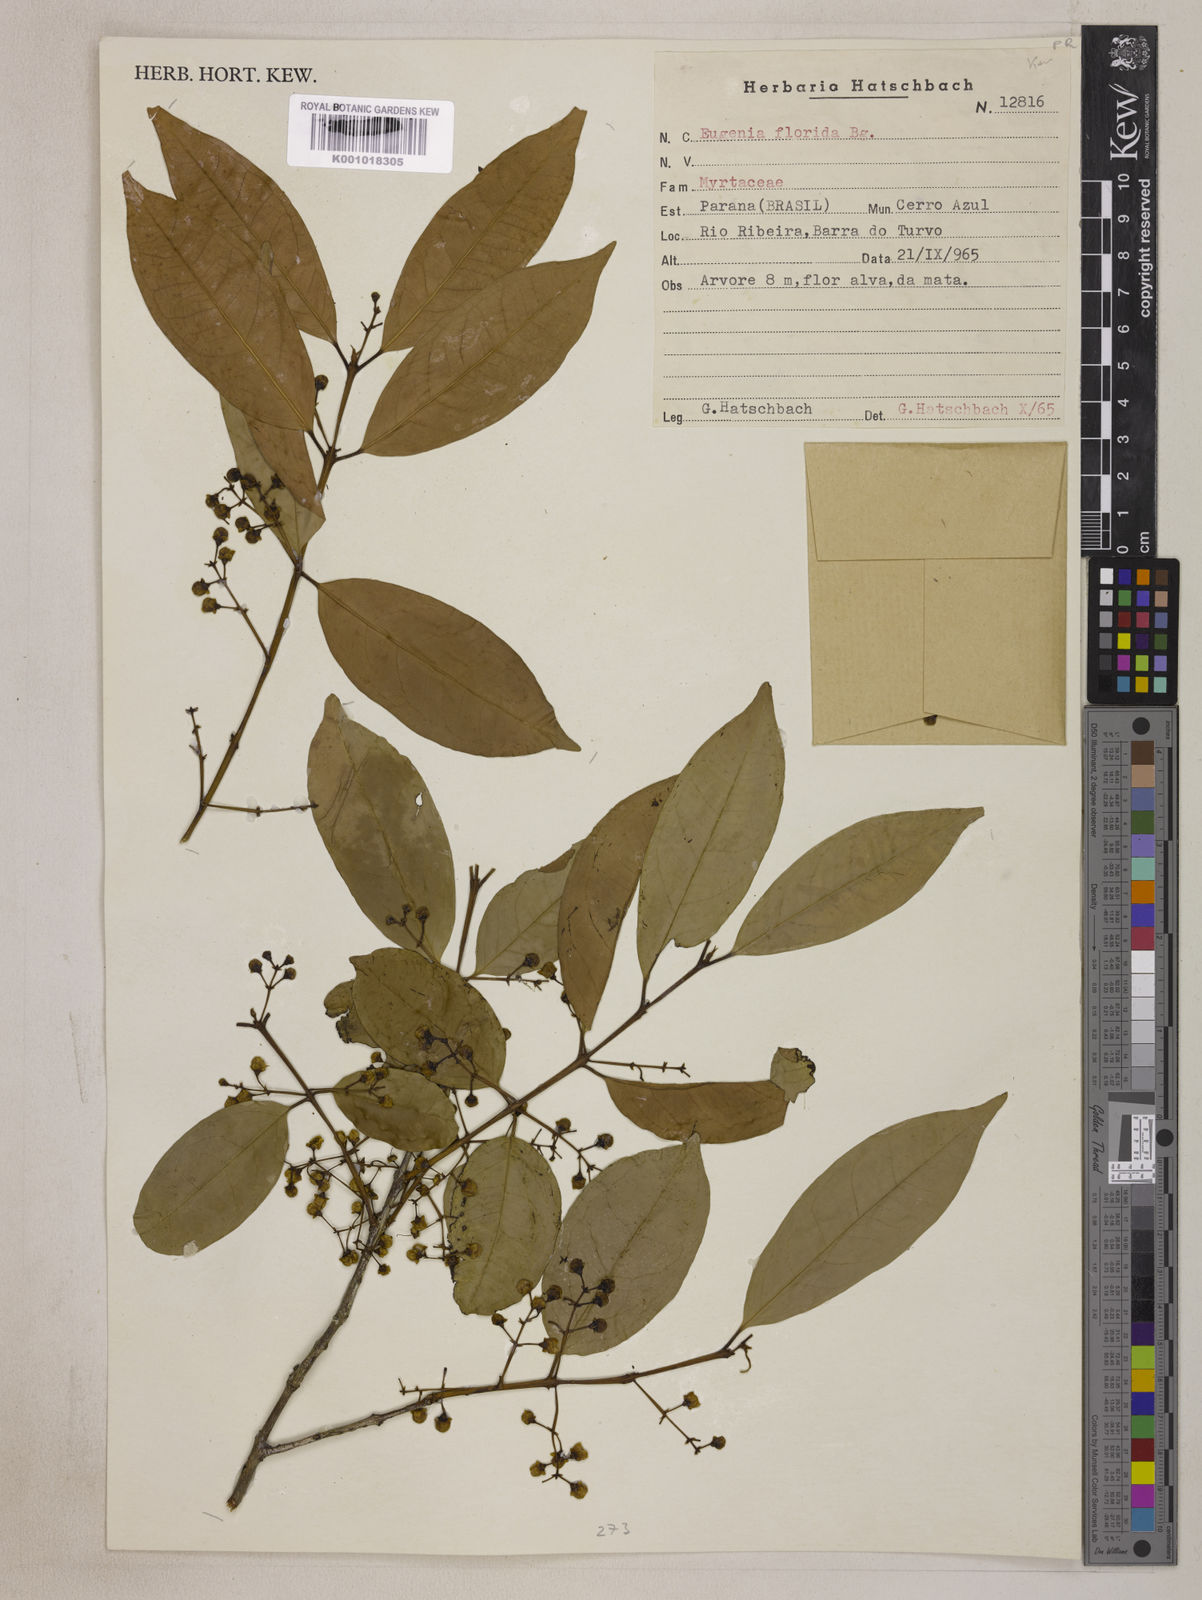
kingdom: Plantae
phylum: Tracheophyta
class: Magnoliopsida
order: Myrtales
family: Myrtaceae
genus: Eugenia
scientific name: Eugenia florida
